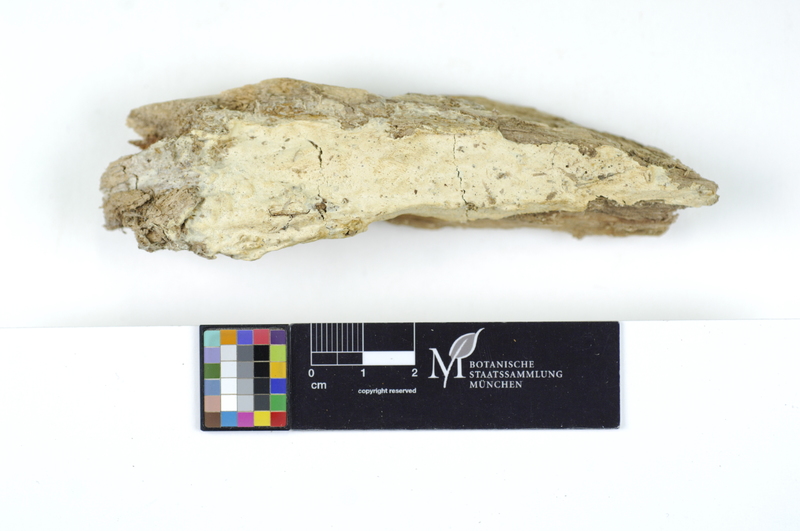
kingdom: Plantae
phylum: Tracheophyta
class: Magnoliopsida
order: Malpighiales
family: Salicaceae
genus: Salix
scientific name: Salix caprea
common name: Goat willow
